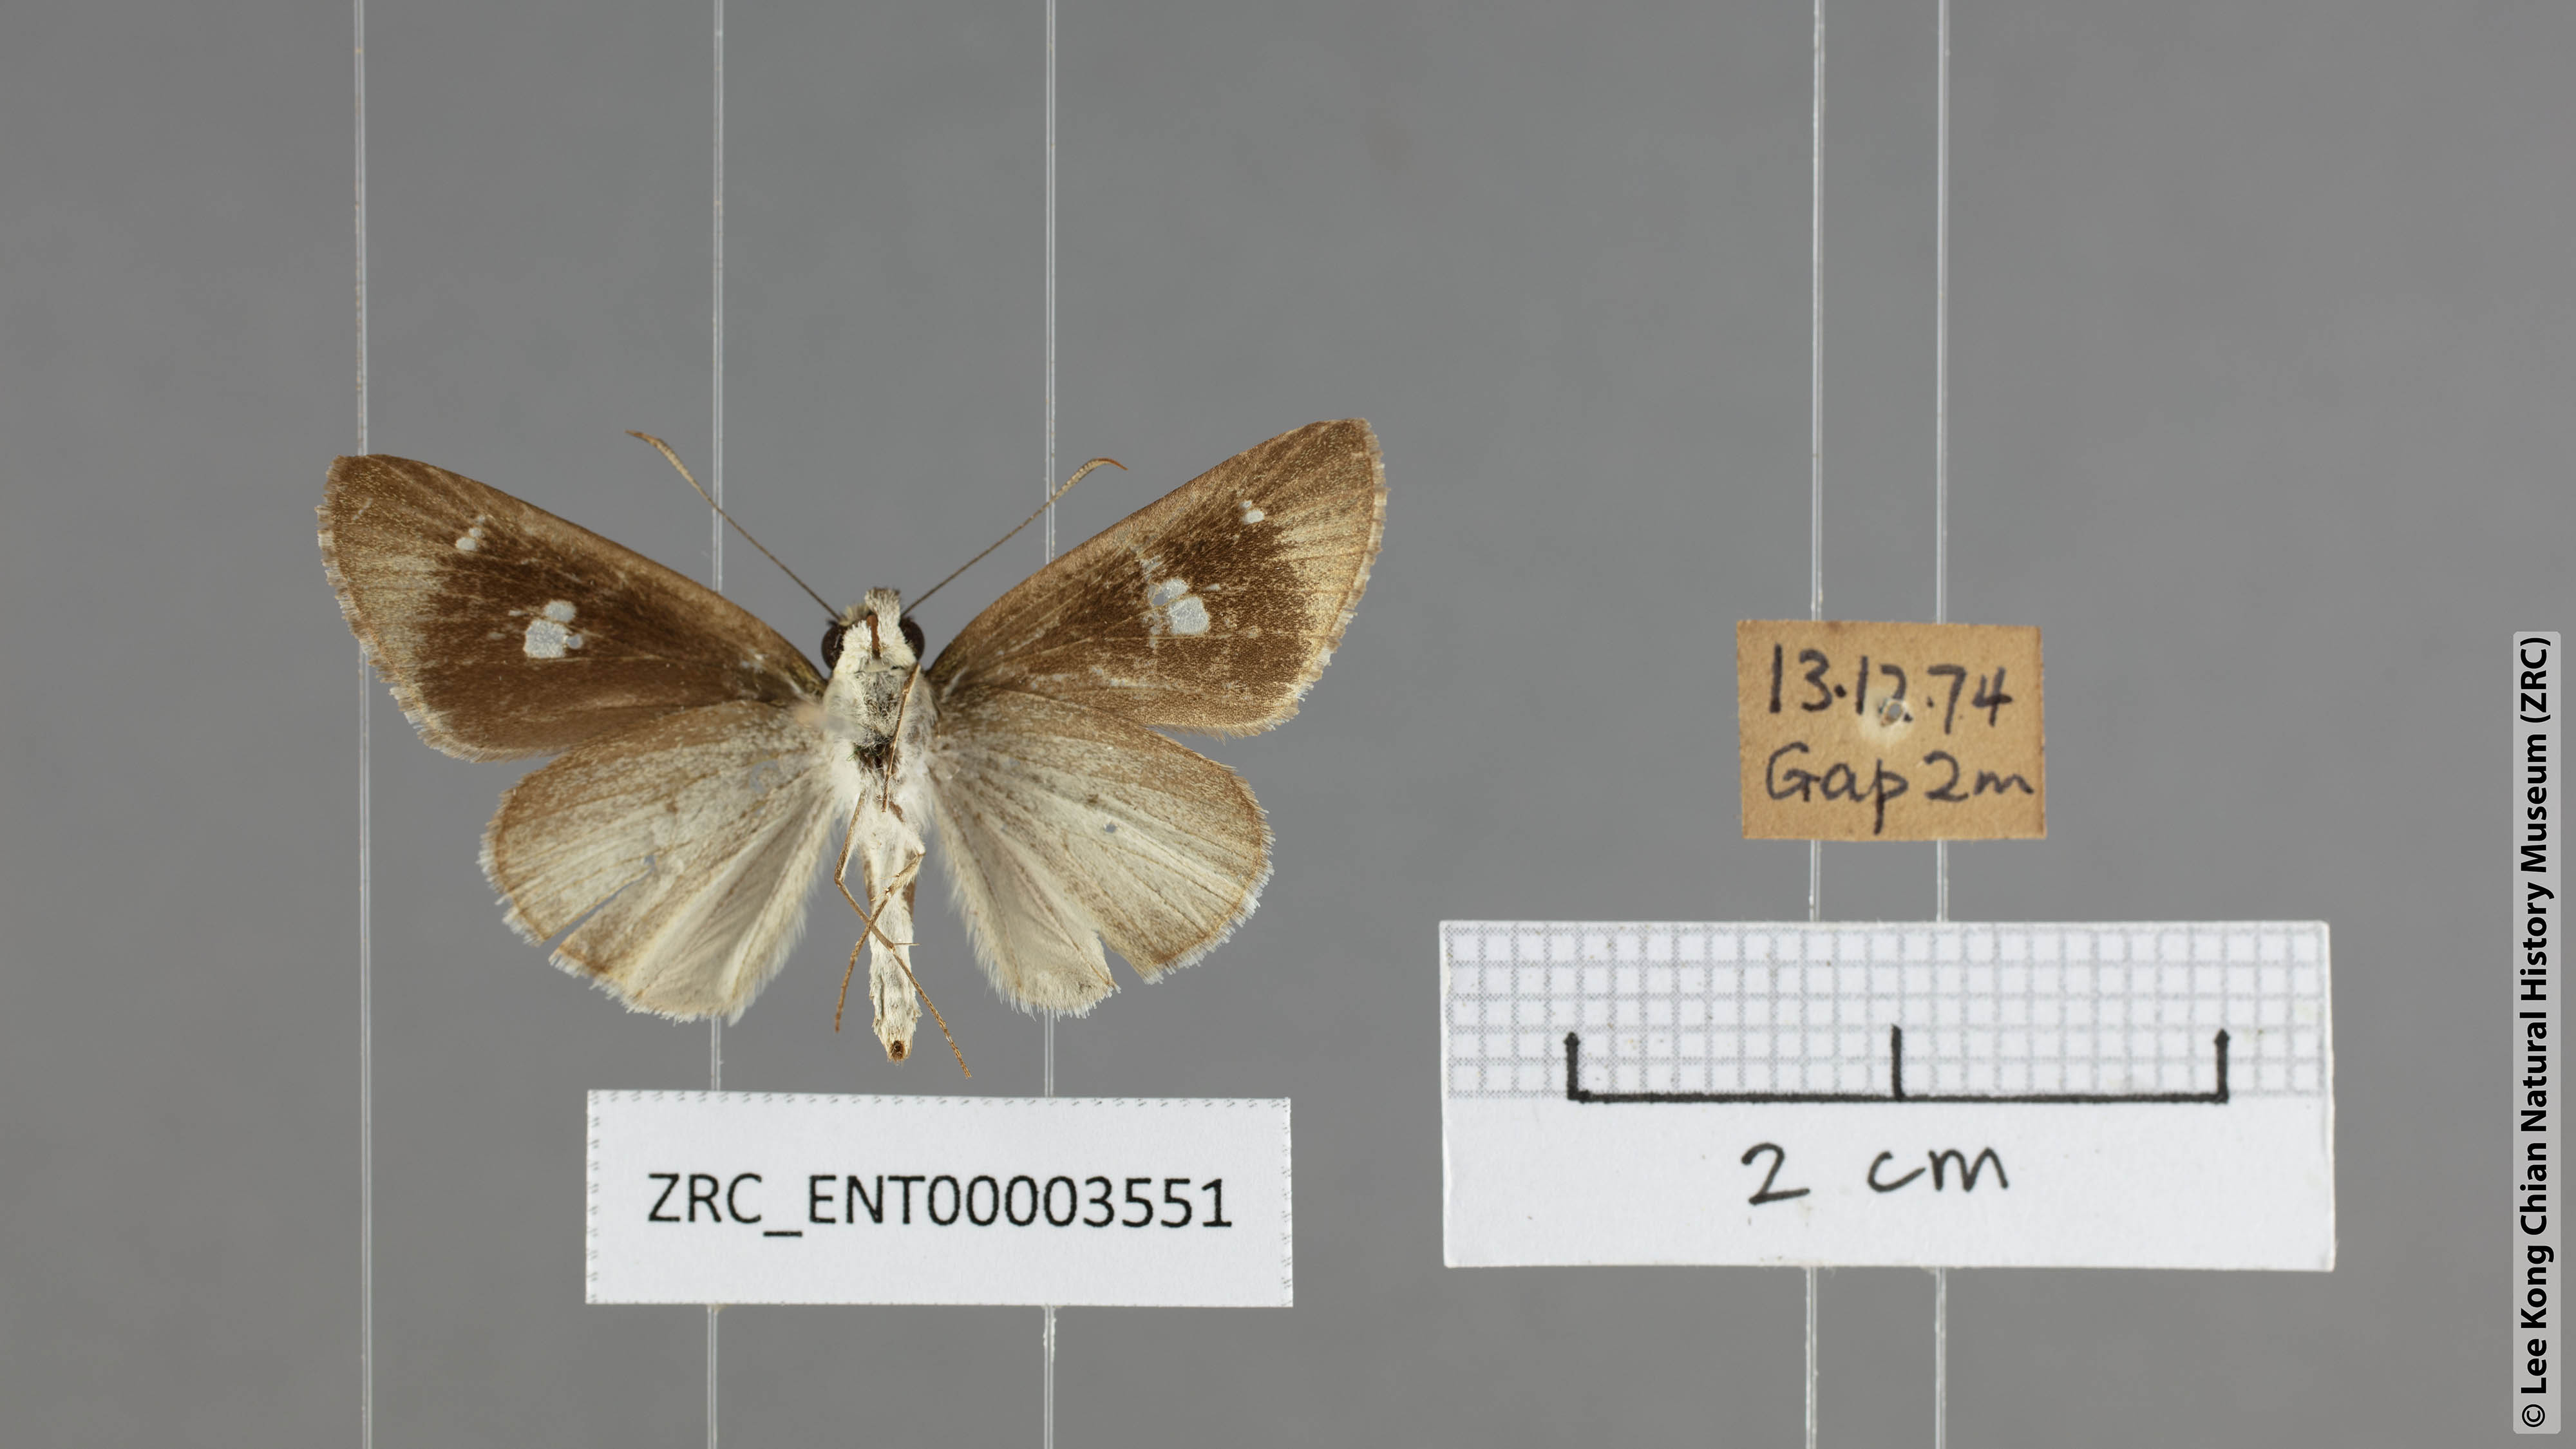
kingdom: Animalia
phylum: Arthropoda
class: Insecta
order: Lepidoptera
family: Hesperiidae
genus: Suada
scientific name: Suada swerga
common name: Grass bob
